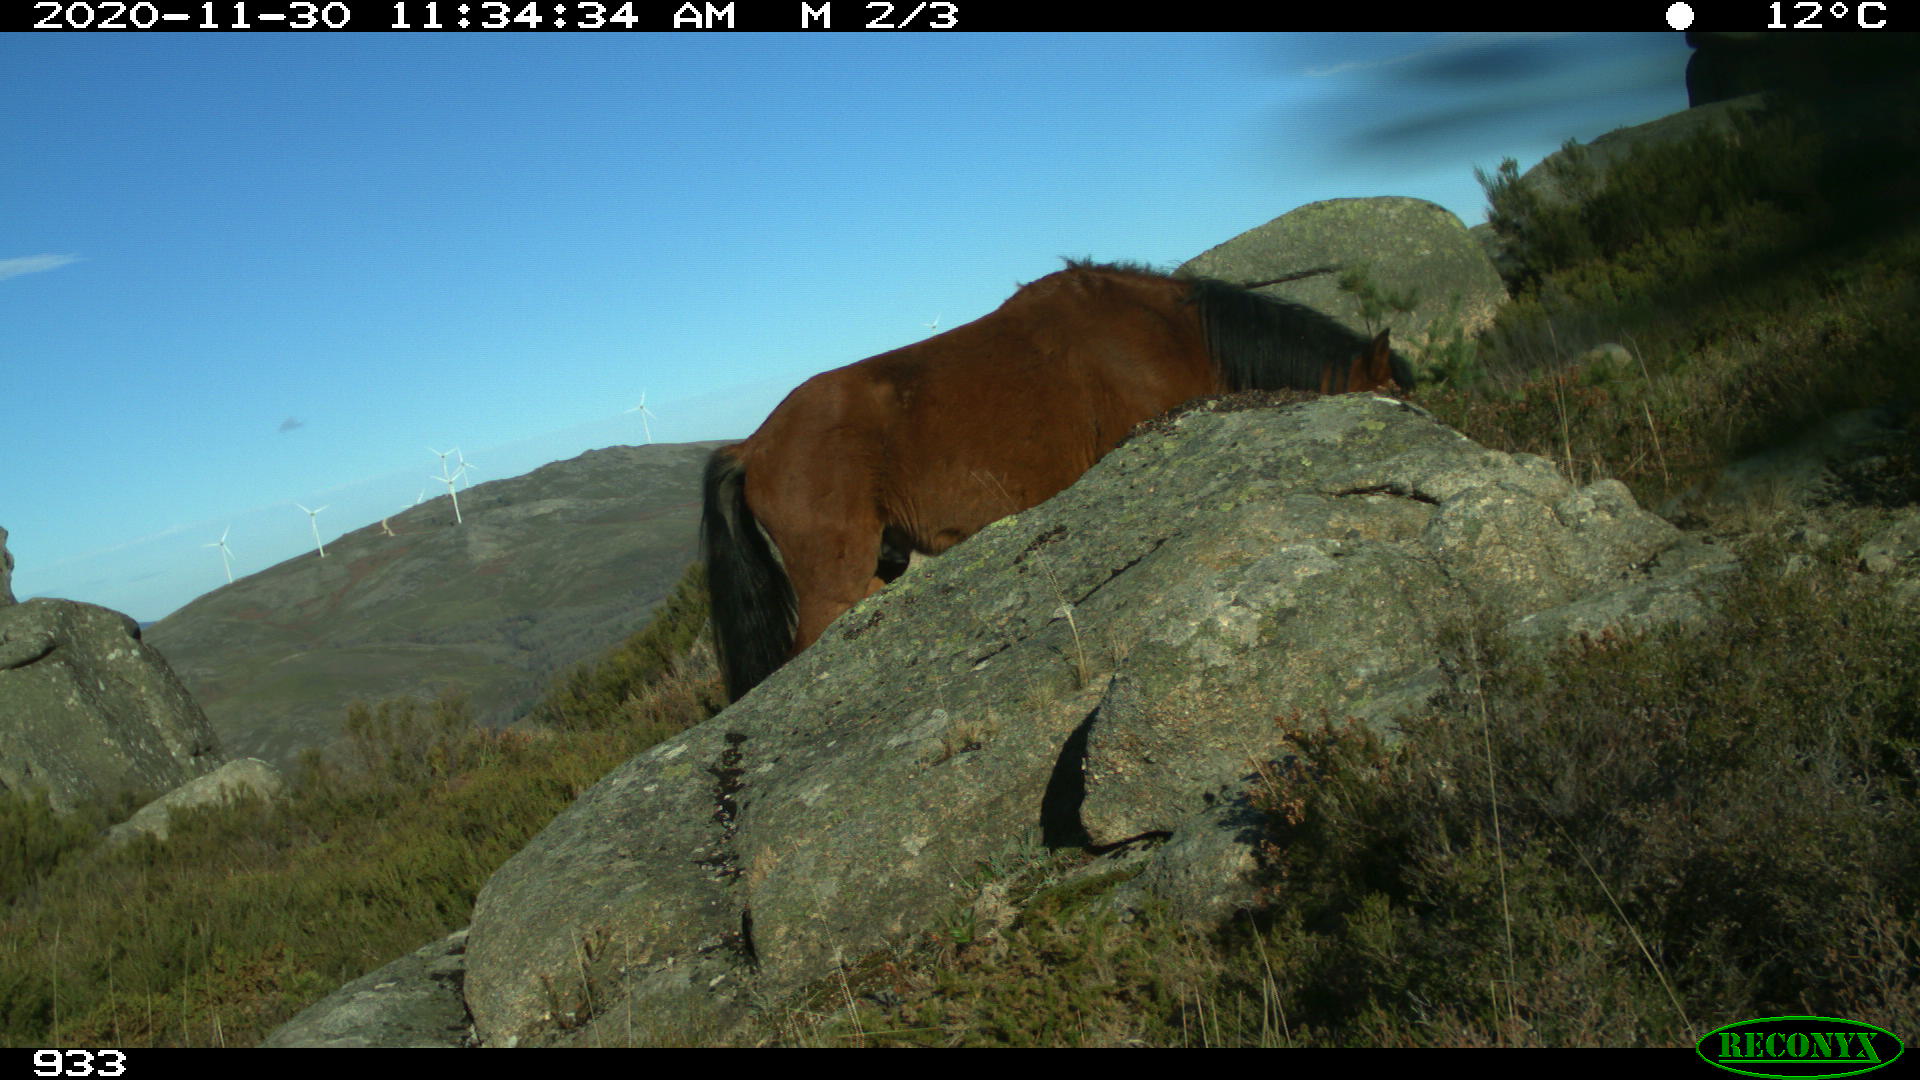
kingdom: Animalia
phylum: Chordata
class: Mammalia
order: Perissodactyla
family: Equidae
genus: Equus
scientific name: Equus caballus
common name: Horse
